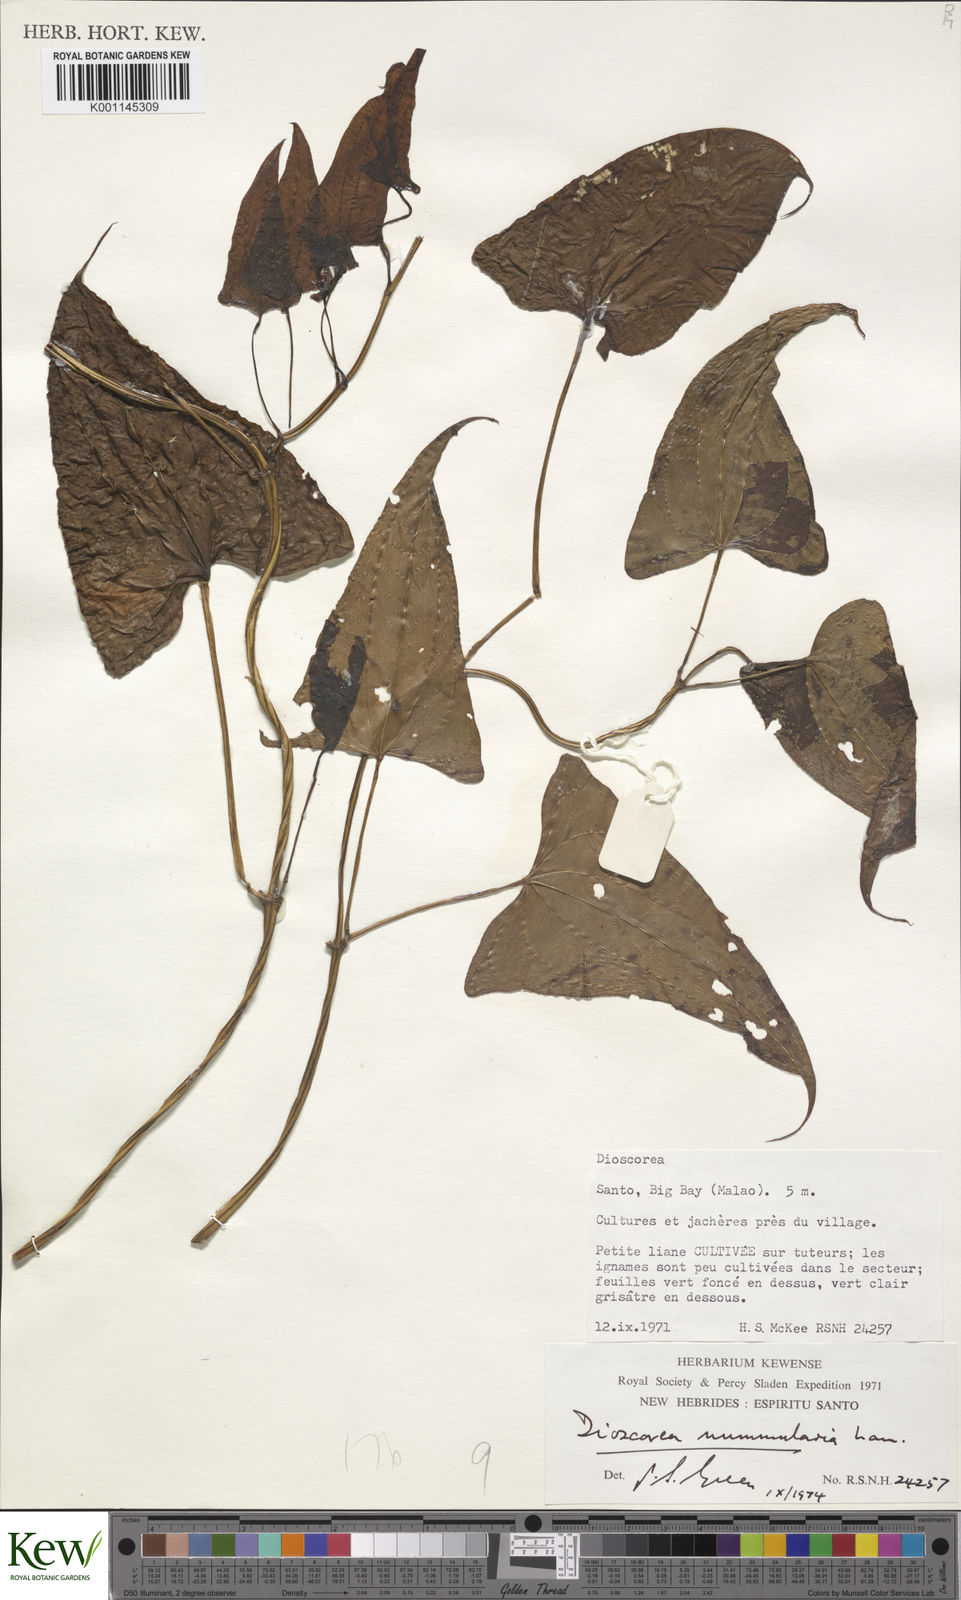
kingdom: Plantae
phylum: Tracheophyta
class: Liliopsida
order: Dioscoreales
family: Dioscoreaceae
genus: Dioscorea
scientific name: Dioscorea nummularia
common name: Pacific yam
